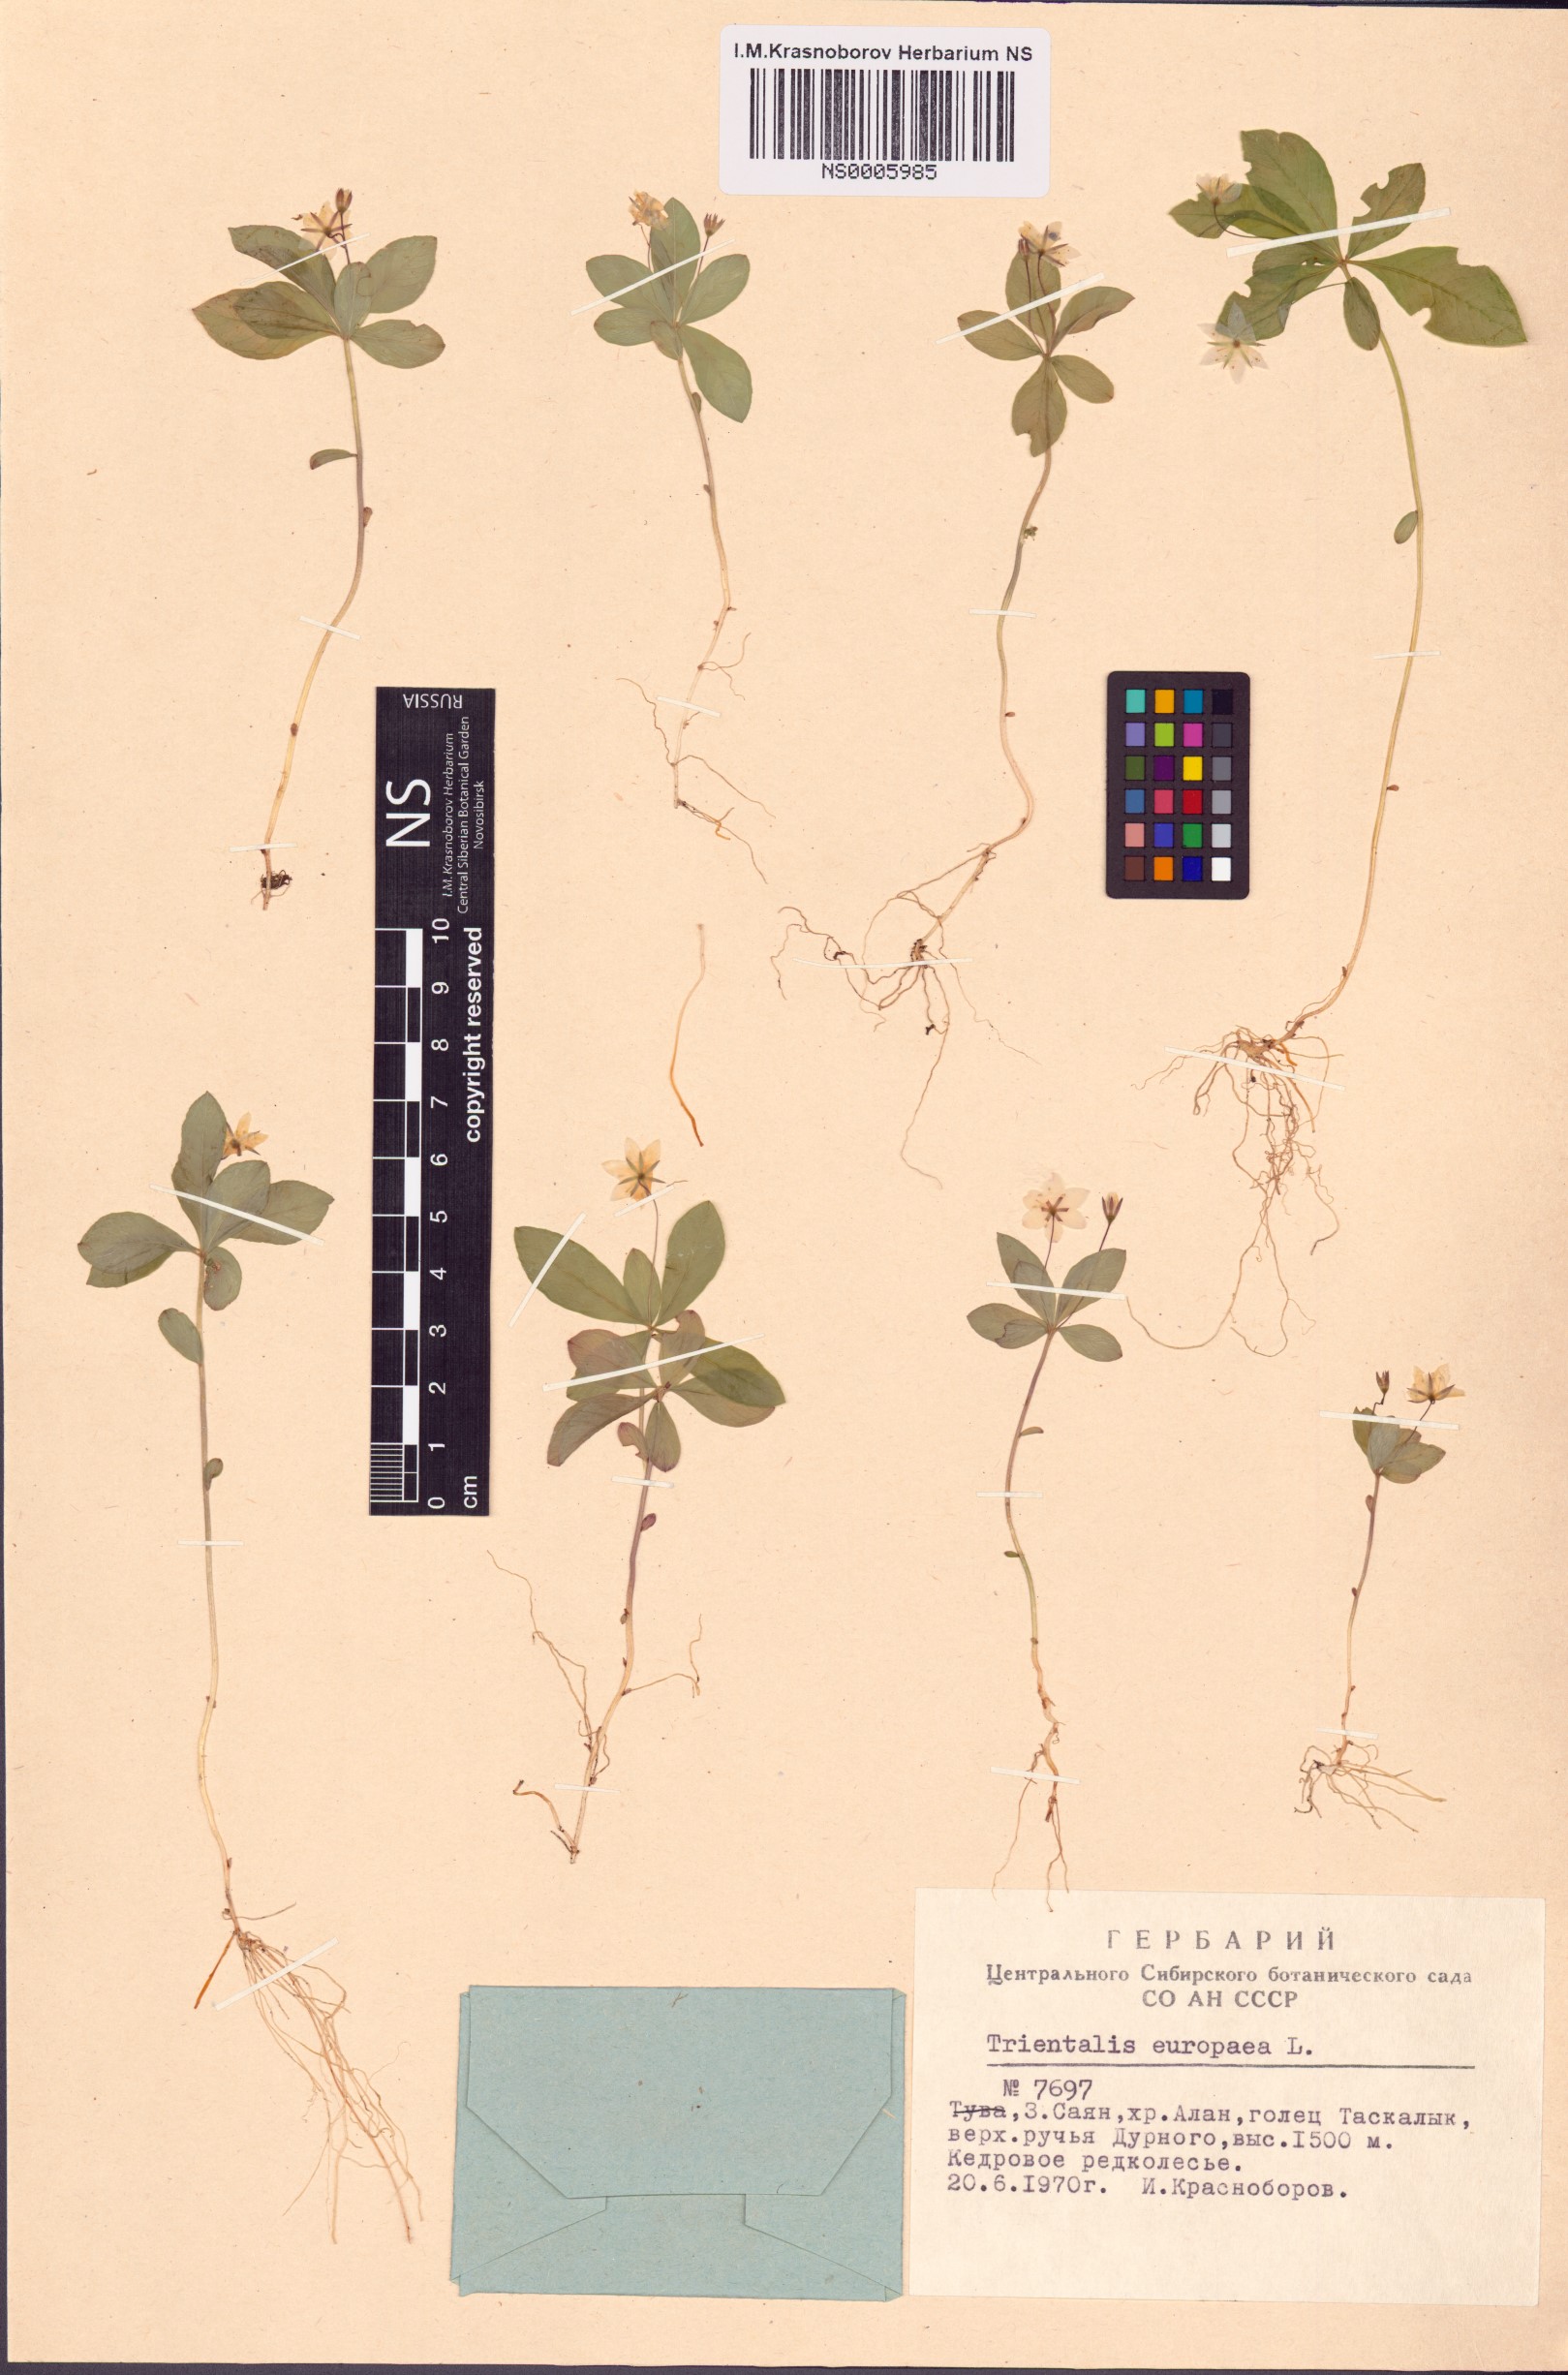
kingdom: Plantae
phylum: Tracheophyta
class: Magnoliopsida
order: Ericales
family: Primulaceae
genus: Lysimachia
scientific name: Lysimachia europaea
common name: Arctic starflower
